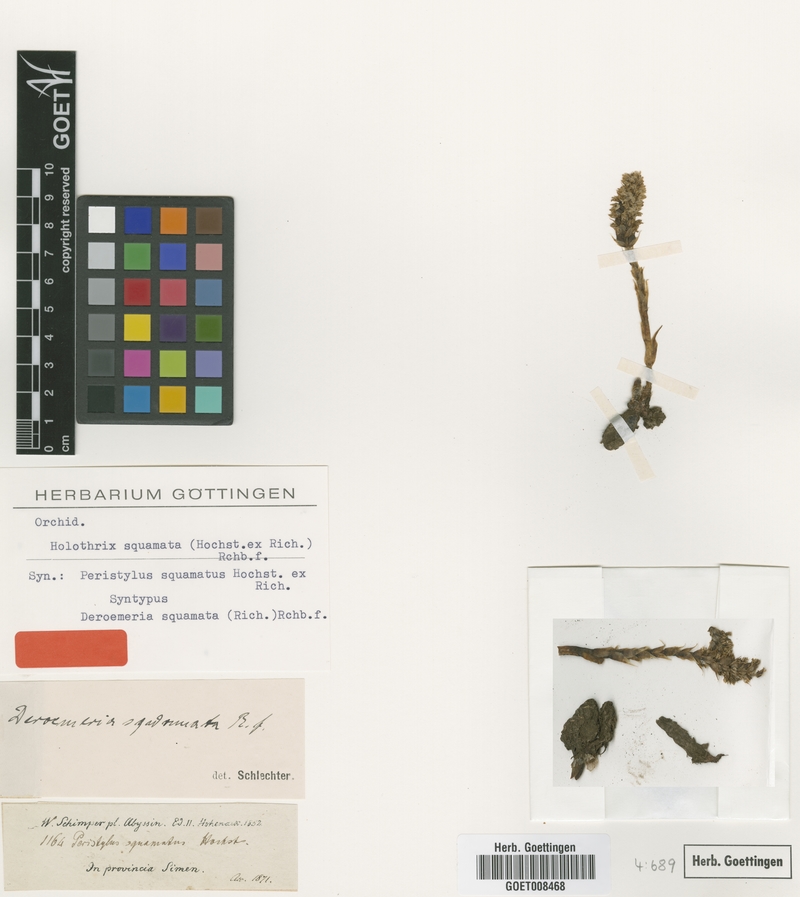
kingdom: Plantae
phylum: Tracheophyta
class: Liliopsida
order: Asparagales
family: Orchidaceae
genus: Holothrix
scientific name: Holothrix squammata
